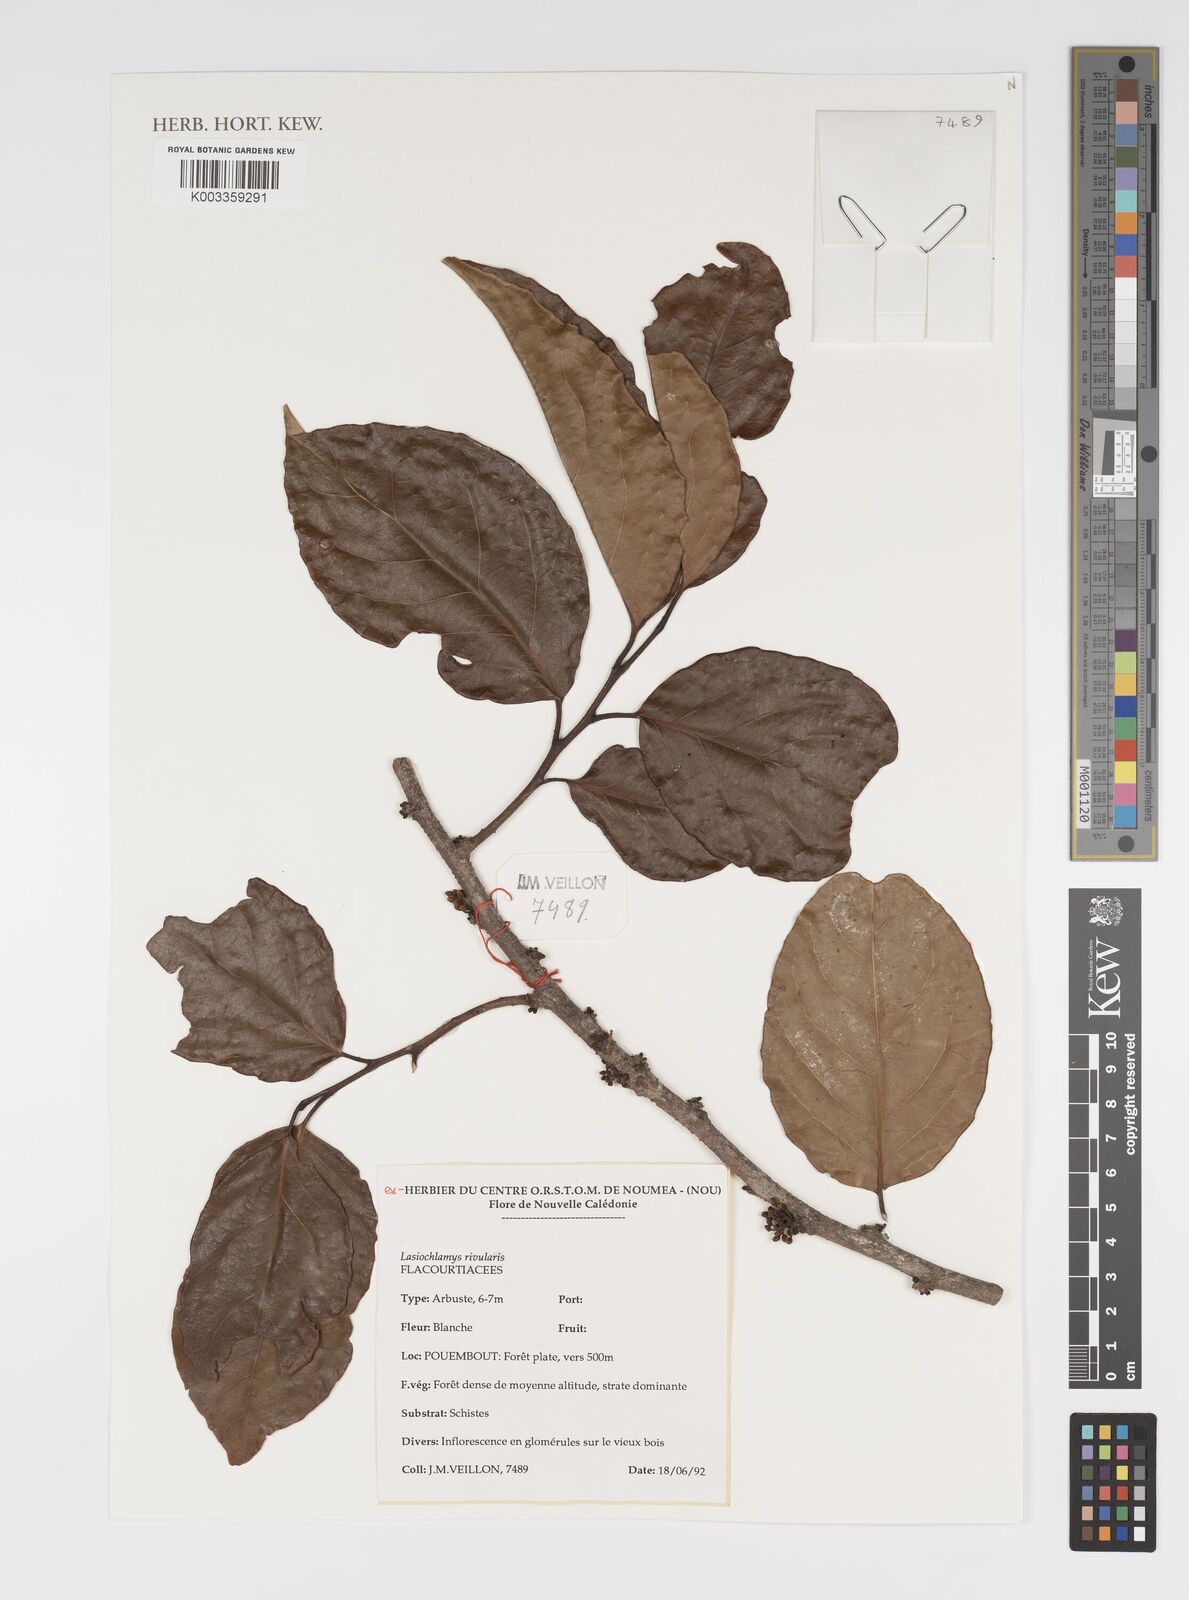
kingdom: Plantae
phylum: Tracheophyta
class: Magnoliopsida
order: Malpighiales
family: Salicaceae
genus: Lasiochlamys
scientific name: Lasiochlamys rivularis
